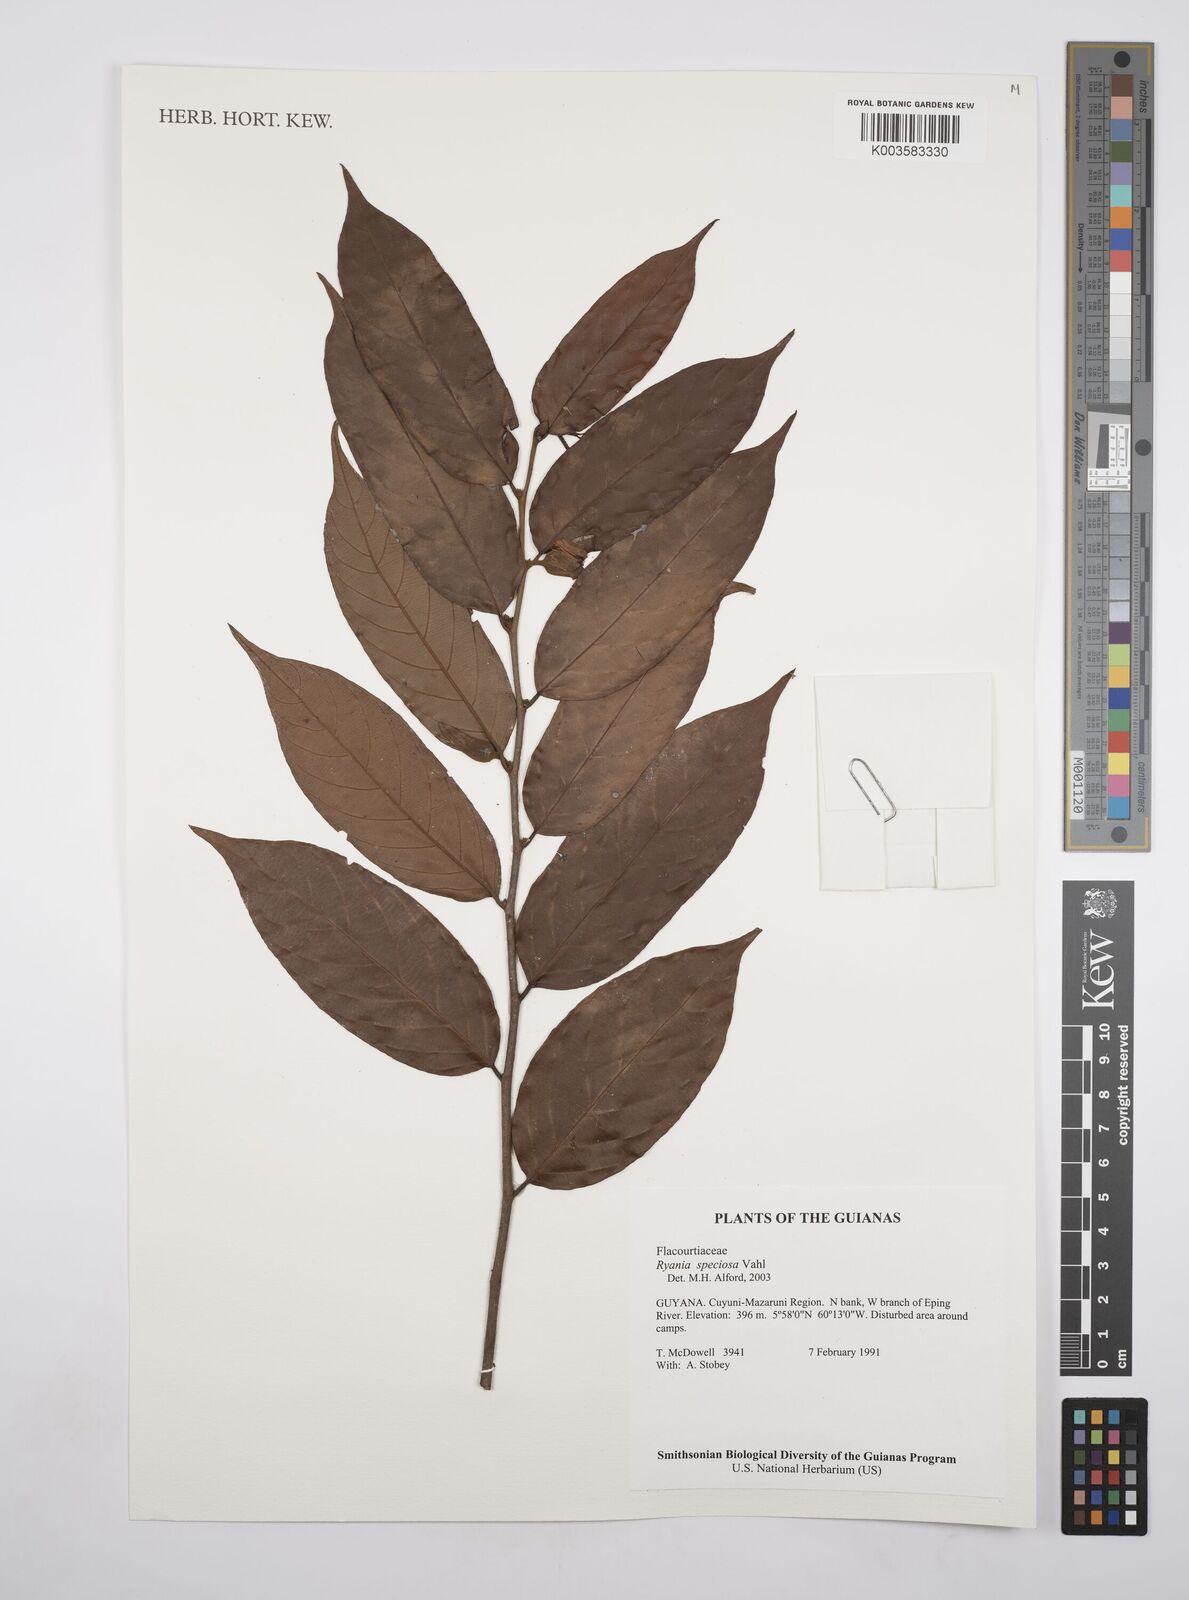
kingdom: Plantae
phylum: Tracheophyta
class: Magnoliopsida
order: Malpighiales
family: Salicaceae
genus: Ryania
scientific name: Ryania speciosa
